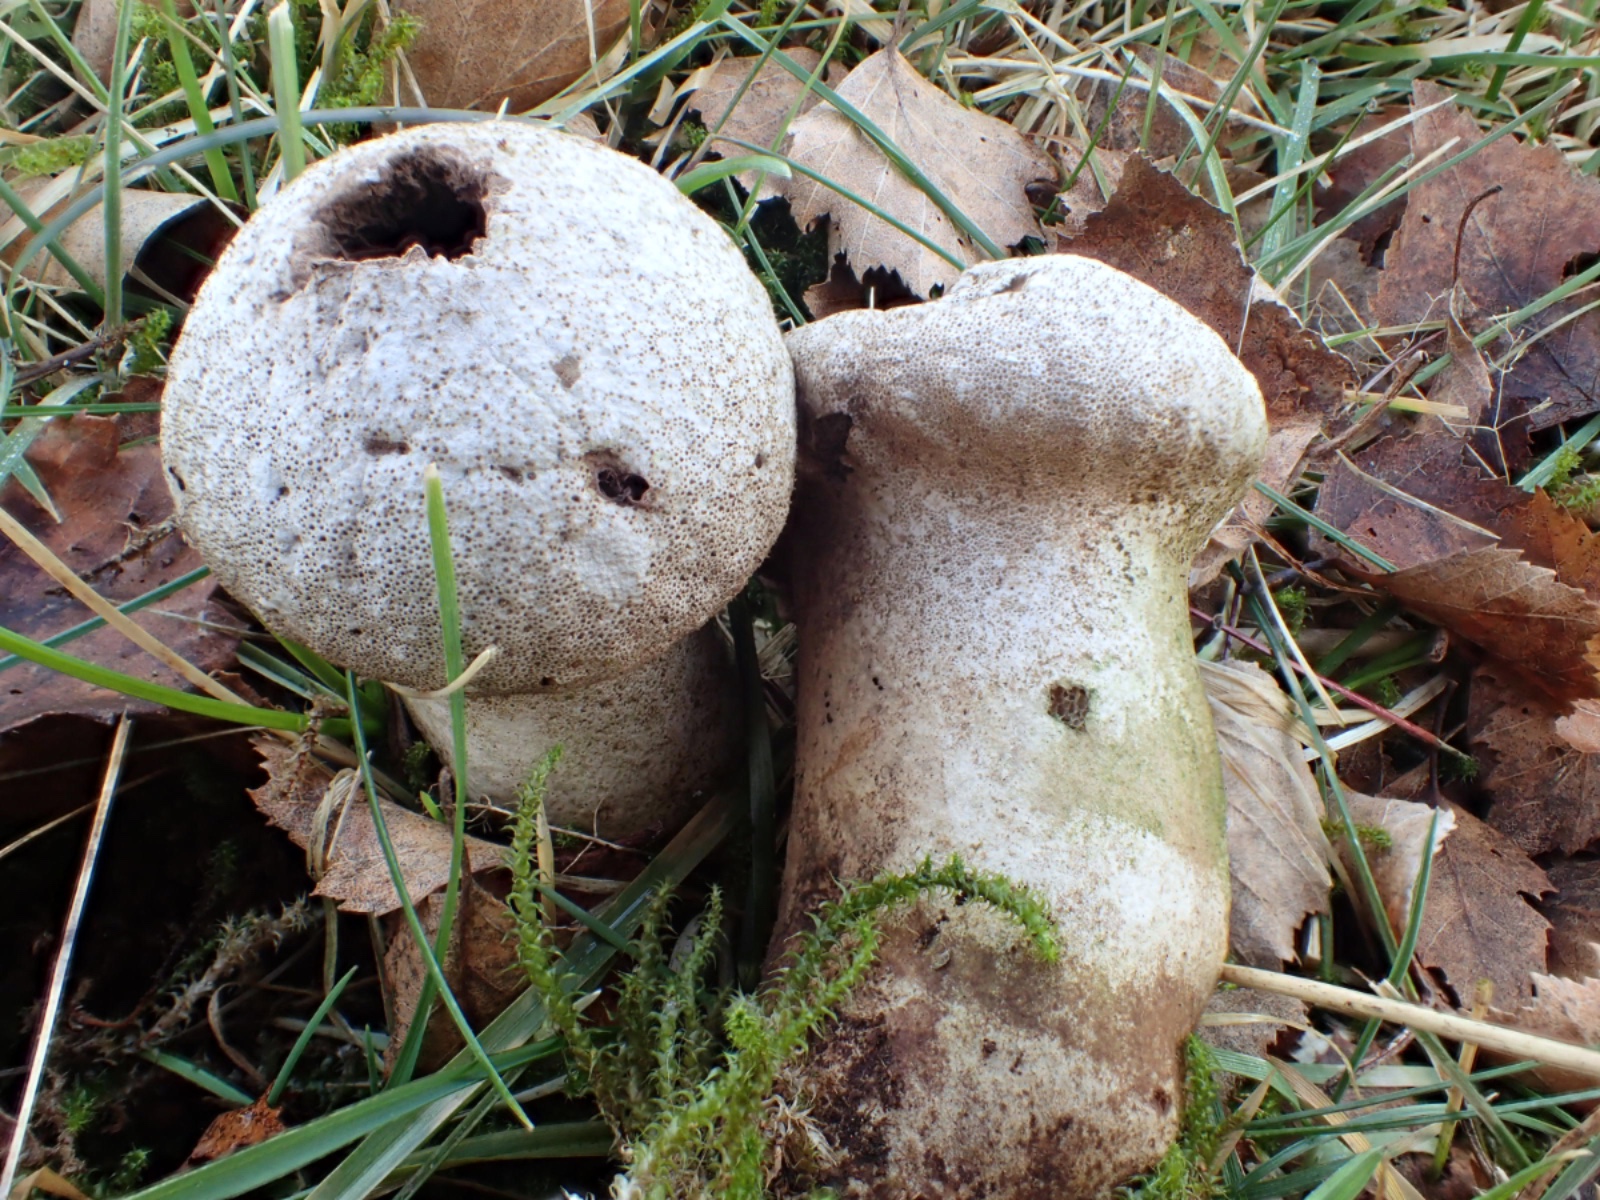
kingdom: Fungi
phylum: Basidiomycota
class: Agaricomycetes
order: Agaricales
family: Lycoperdaceae
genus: Lycoperdon
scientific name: Lycoperdon perlatum
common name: krystal-støvbold
